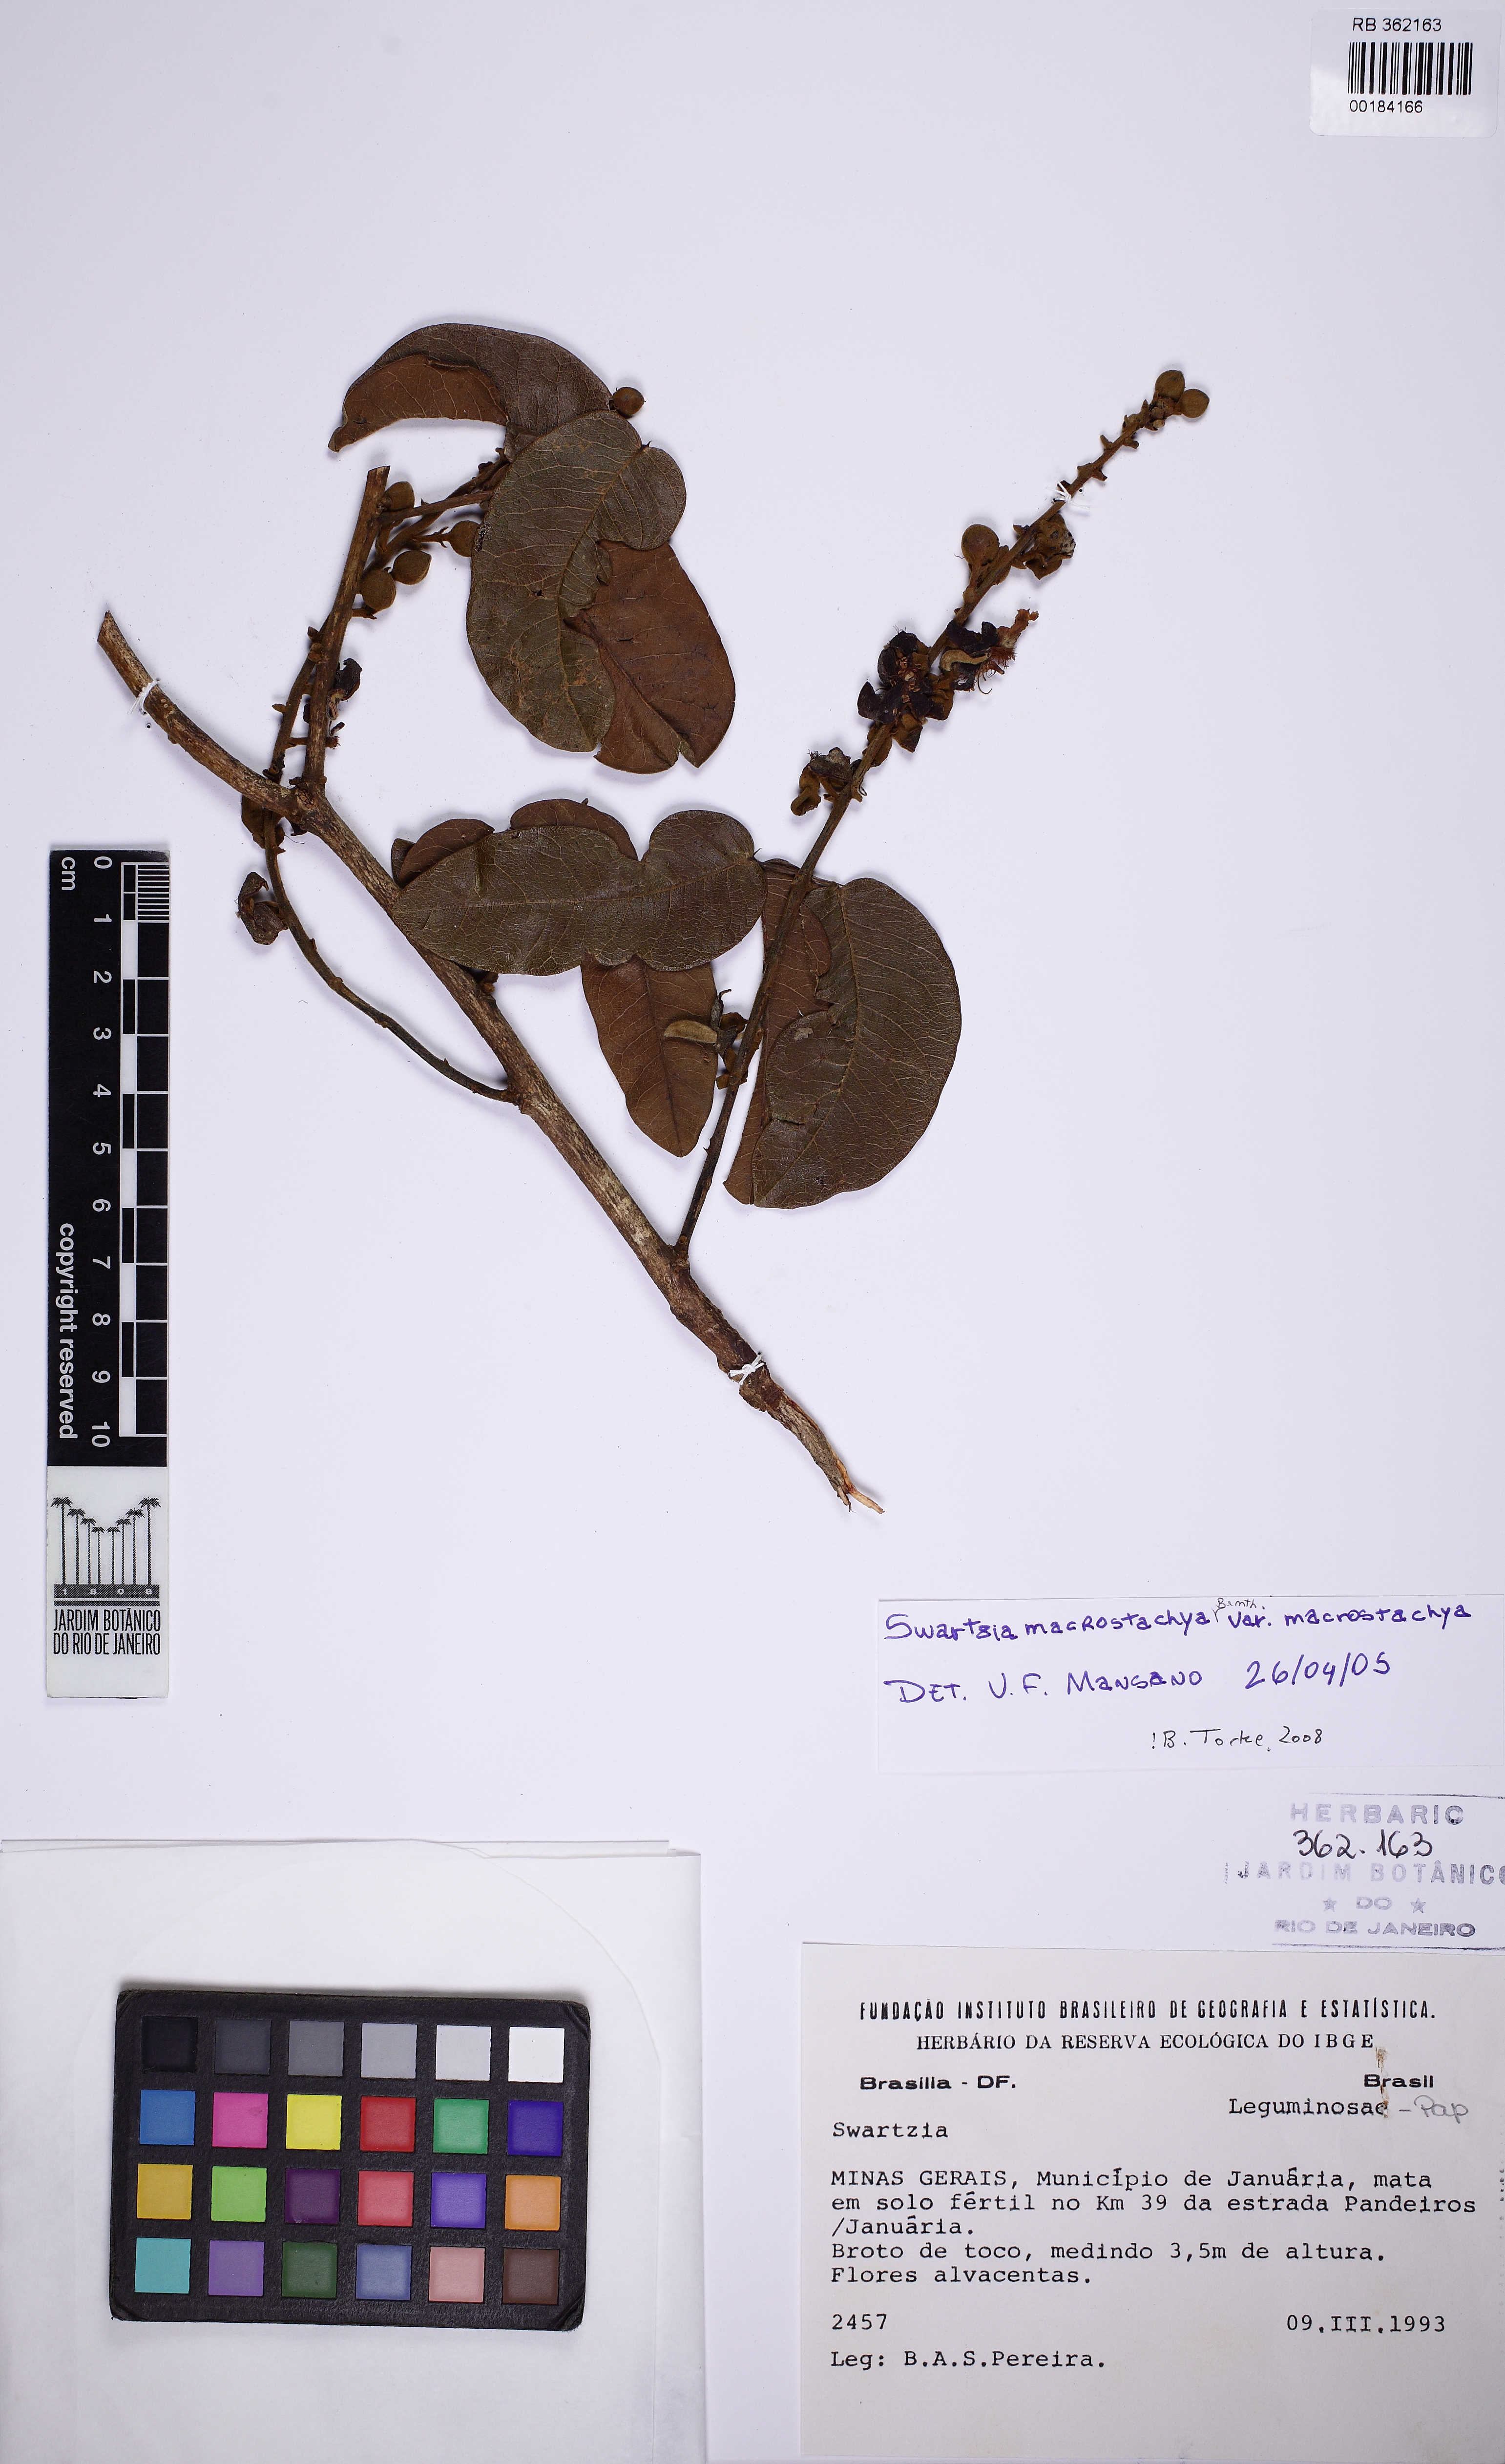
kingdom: Plantae
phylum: Tracheophyta
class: Magnoliopsida
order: Fabales
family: Fabaceae
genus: Swartzia
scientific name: Swartzia macrostachya
